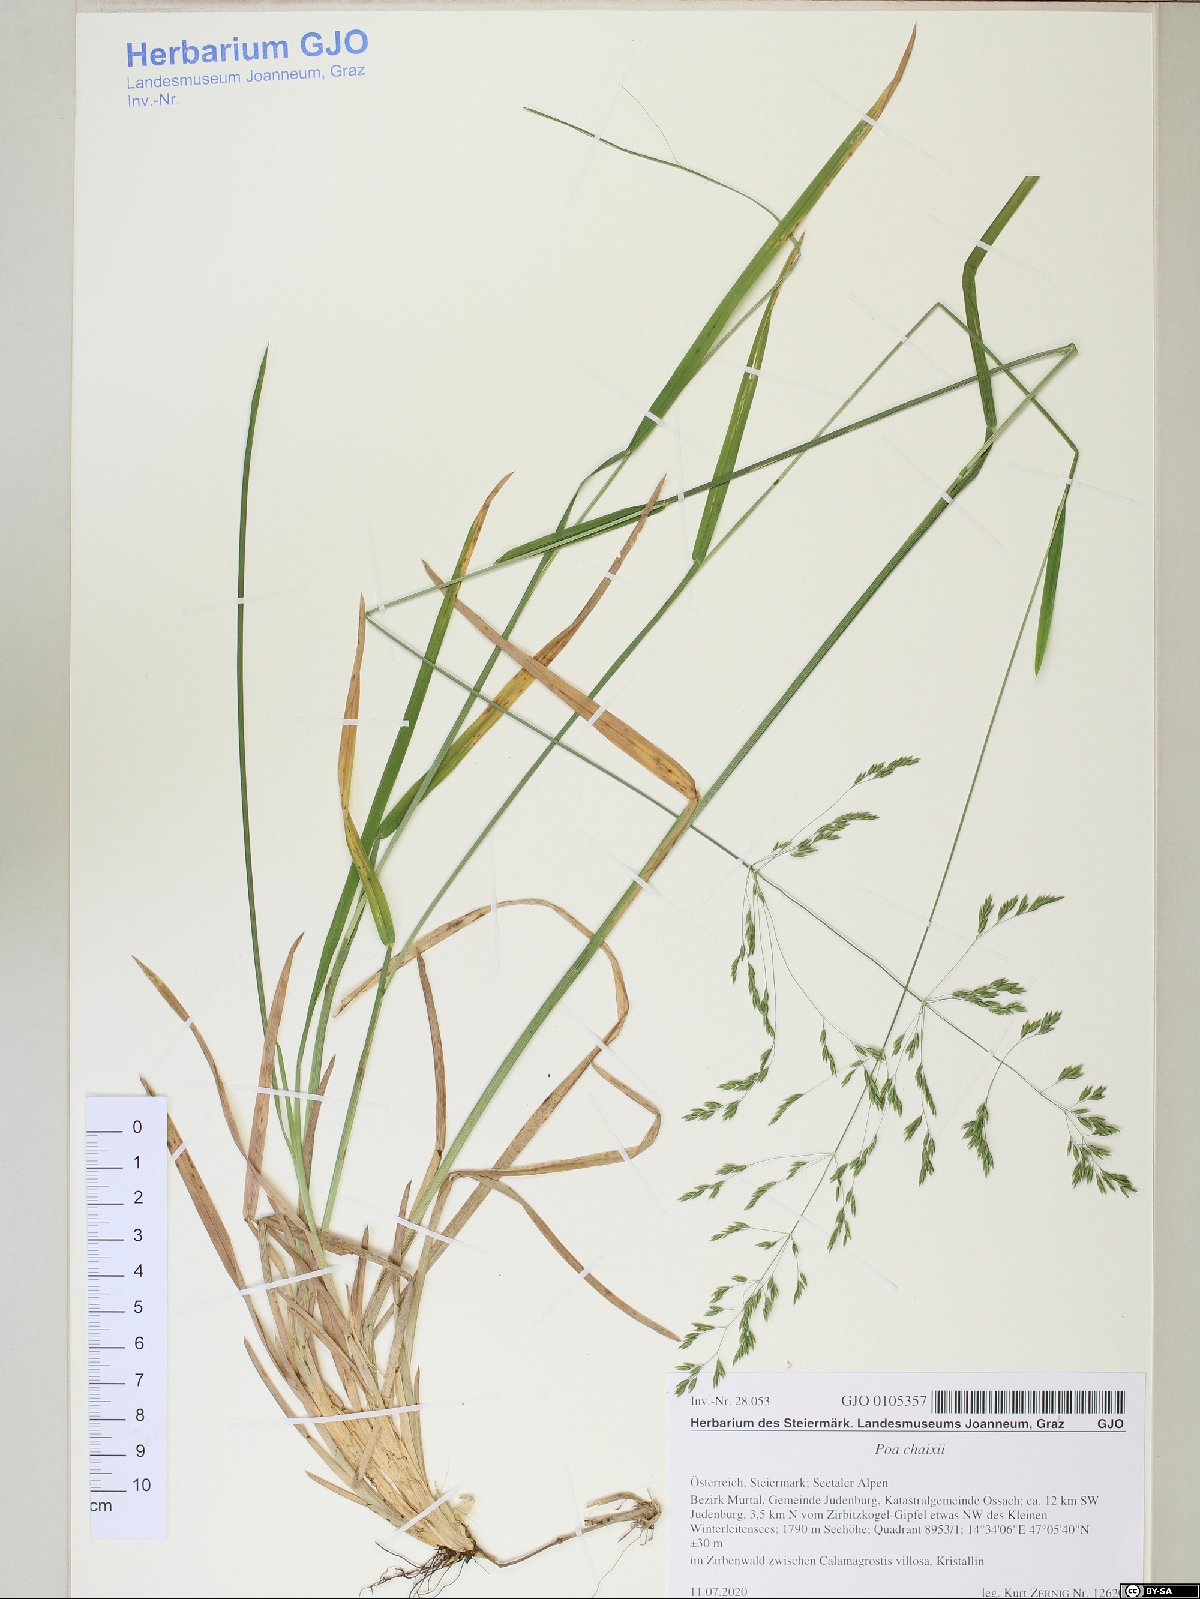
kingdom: Plantae
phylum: Tracheophyta
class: Liliopsida
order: Poales
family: Poaceae
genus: Poa
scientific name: Poa chaixii
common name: Broad-leaved meadow-grass
